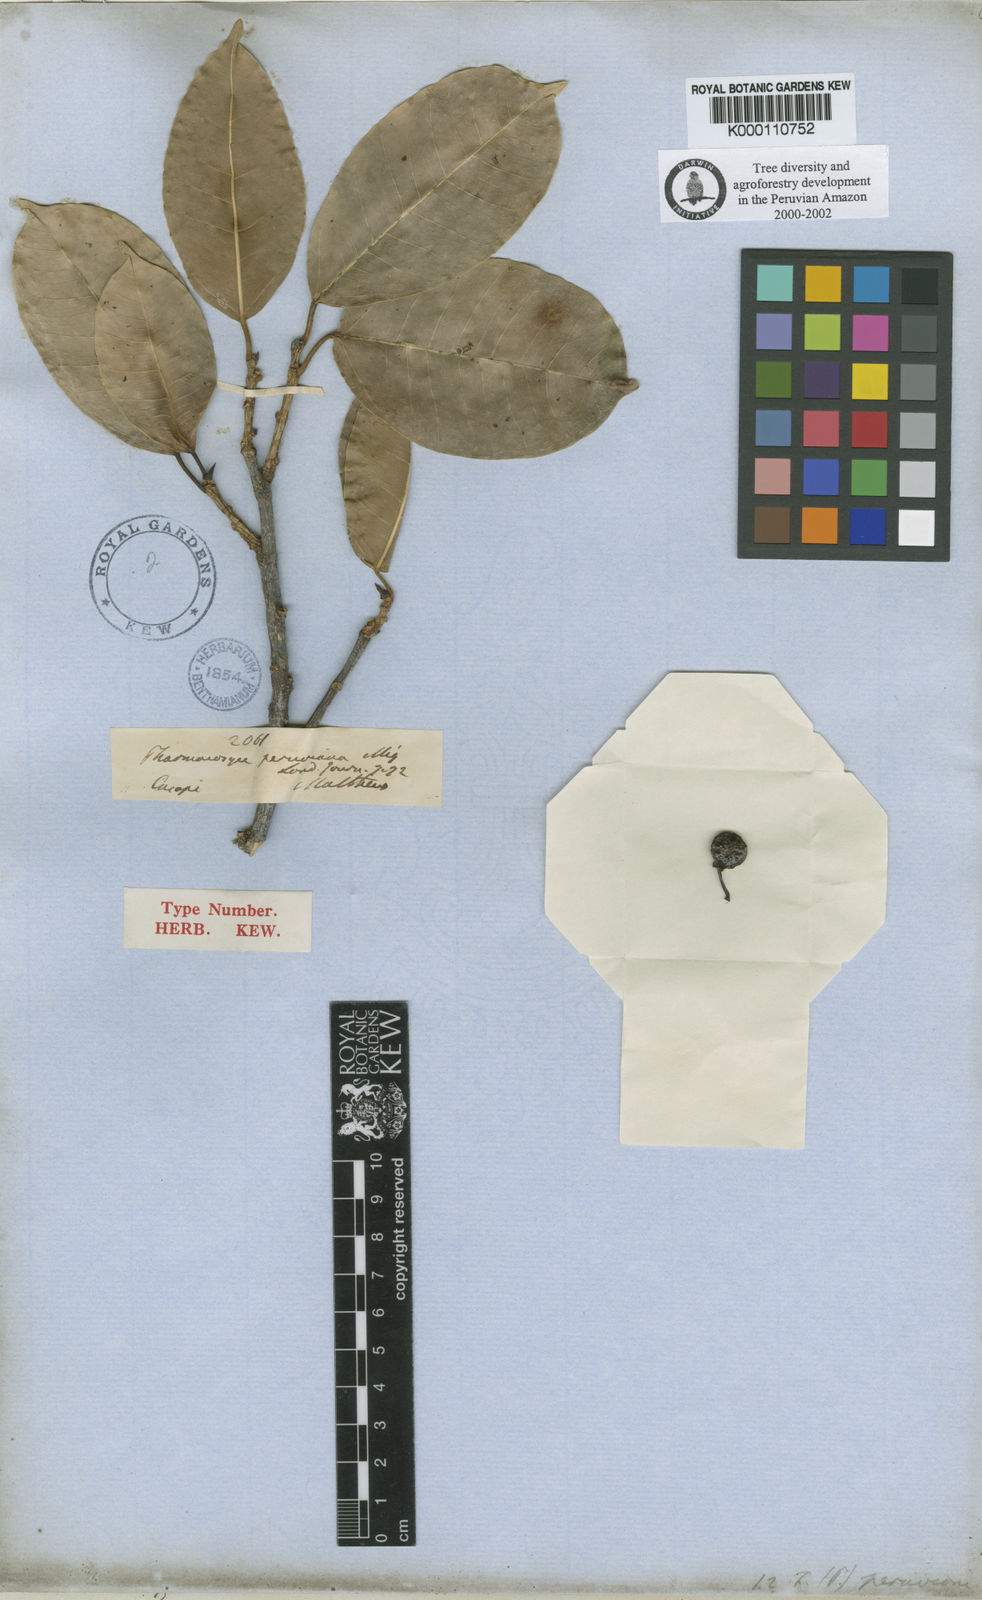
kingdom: Plantae
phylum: Tracheophyta
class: Magnoliopsida
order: Rosales
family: Moraceae
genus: Ficus
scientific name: Ficus pertusa
